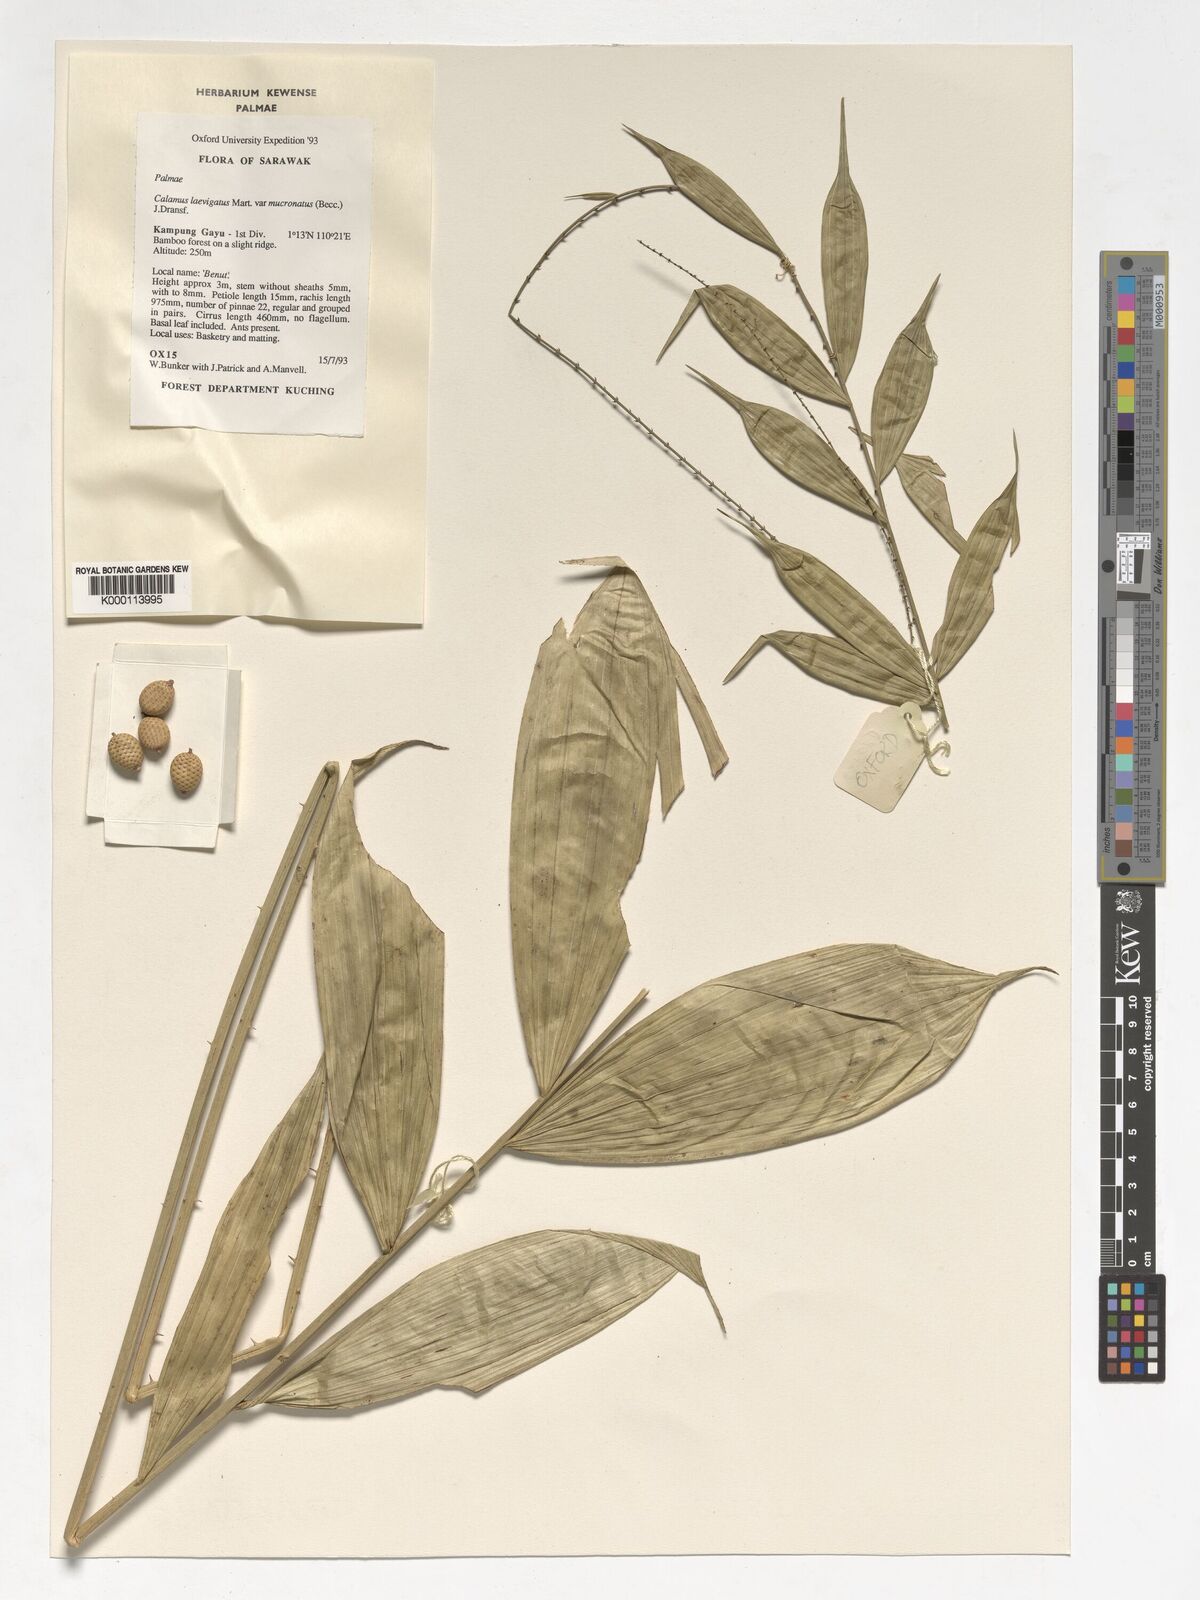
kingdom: Plantae
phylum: Tracheophyta
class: Liliopsida
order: Arecales
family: Arecaceae
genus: Calamus
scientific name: Calamus plicatus
